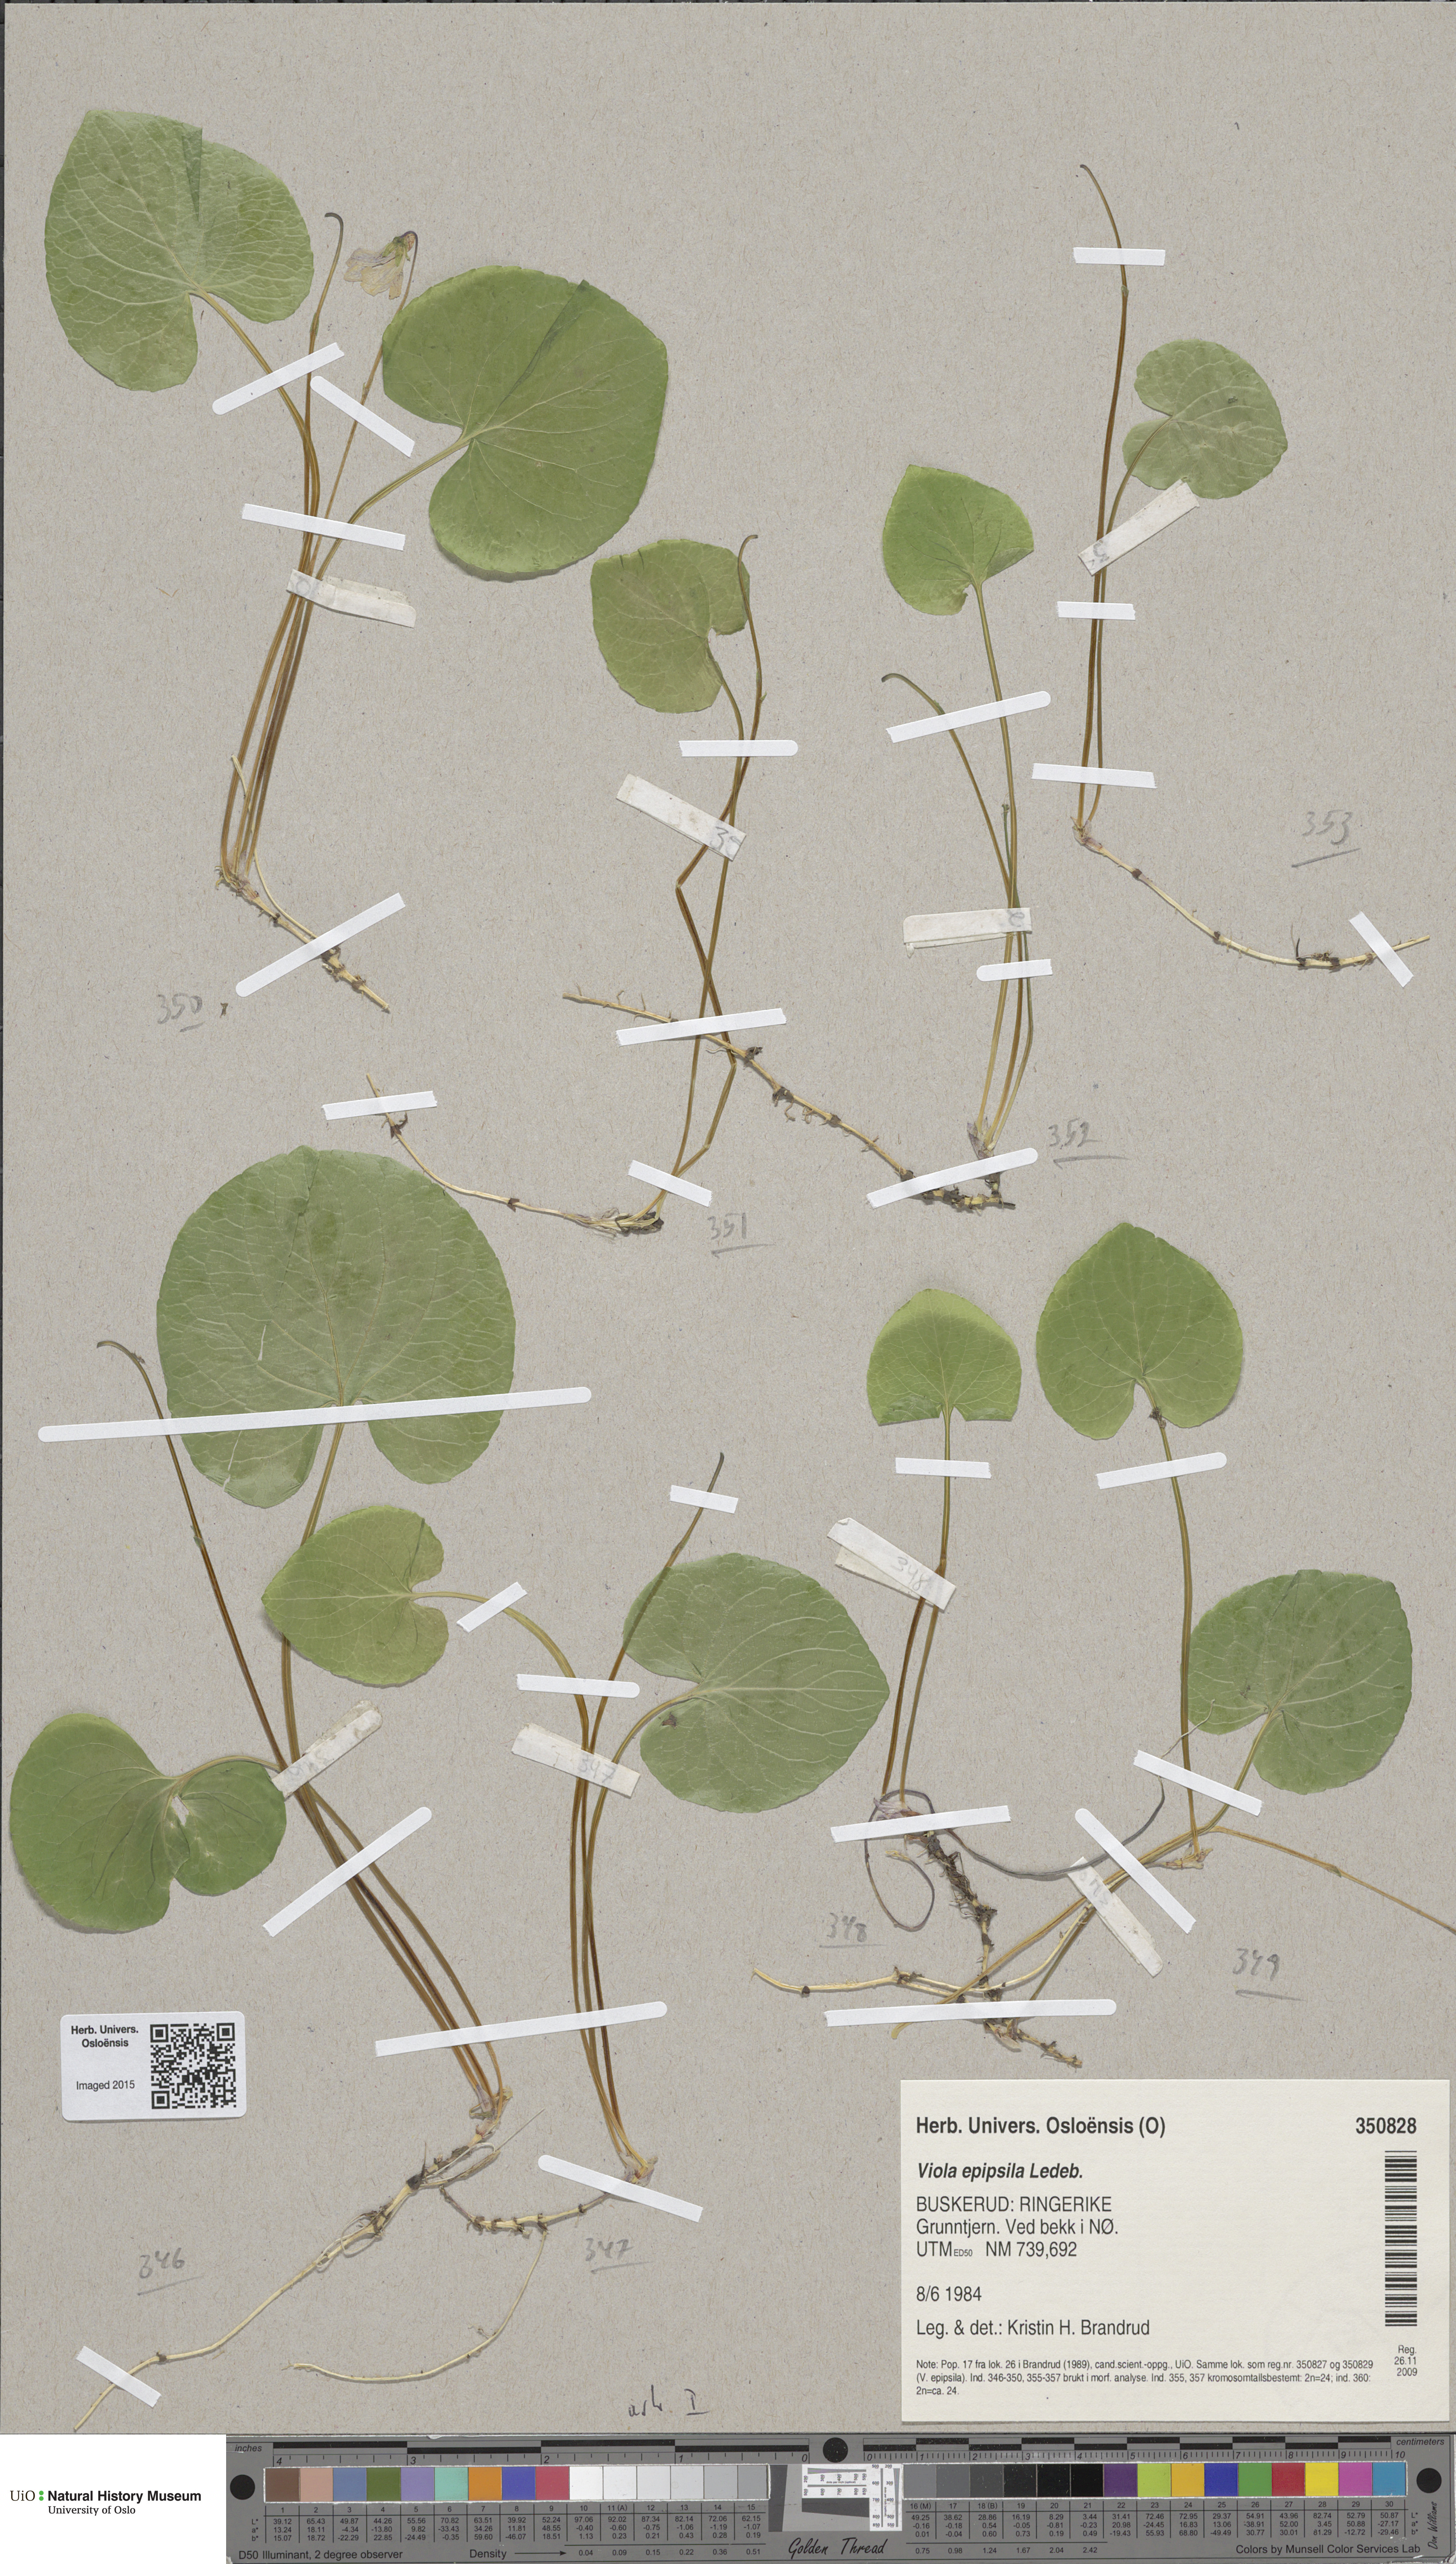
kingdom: Plantae
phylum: Tracheophyta
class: Magnoliopsida
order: Malpighiales
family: Violaceae
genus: Viola
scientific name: Viola epipsila
